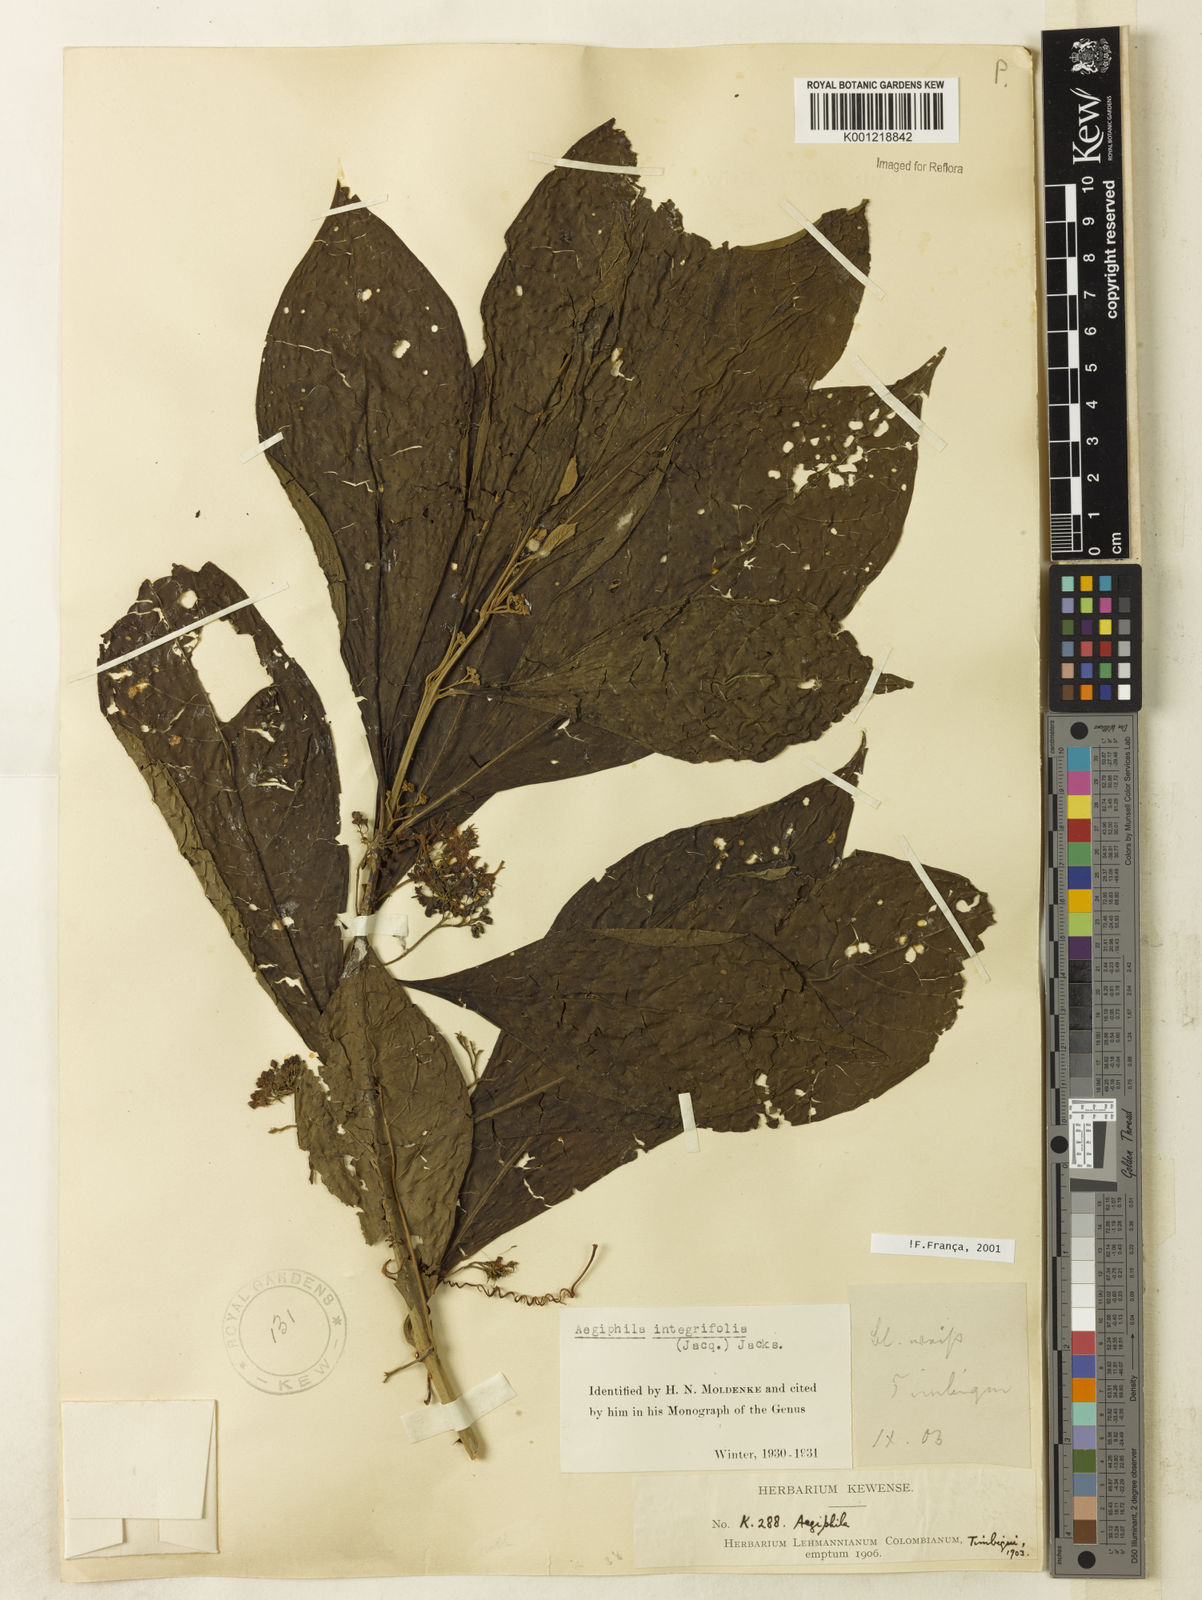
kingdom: Plantae
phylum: Tracheophyta
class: Magnoliopsida
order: Lamiales
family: Lamiaceae
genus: Aegiphila
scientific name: Aegiphila
